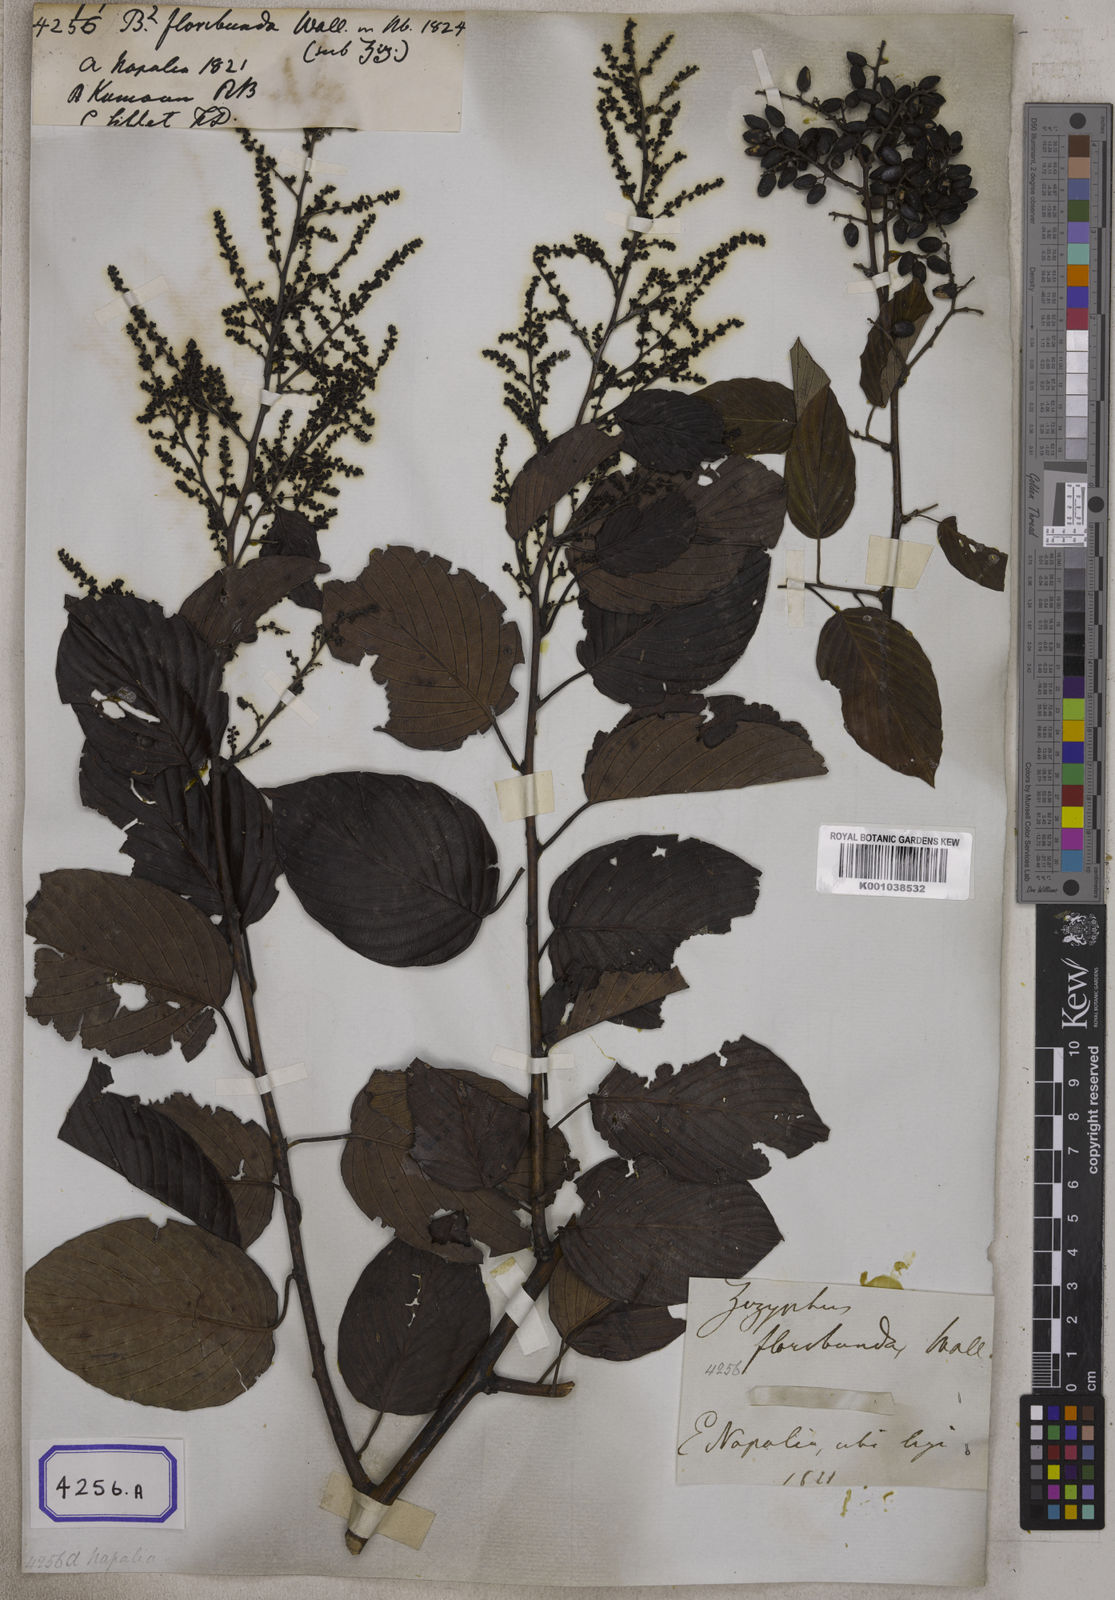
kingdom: Plantae
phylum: Tracheophyta
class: Magnoliopsida
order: Rosales
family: Rhamnaceae
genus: Berchemia
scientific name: Berchemia floribunda
